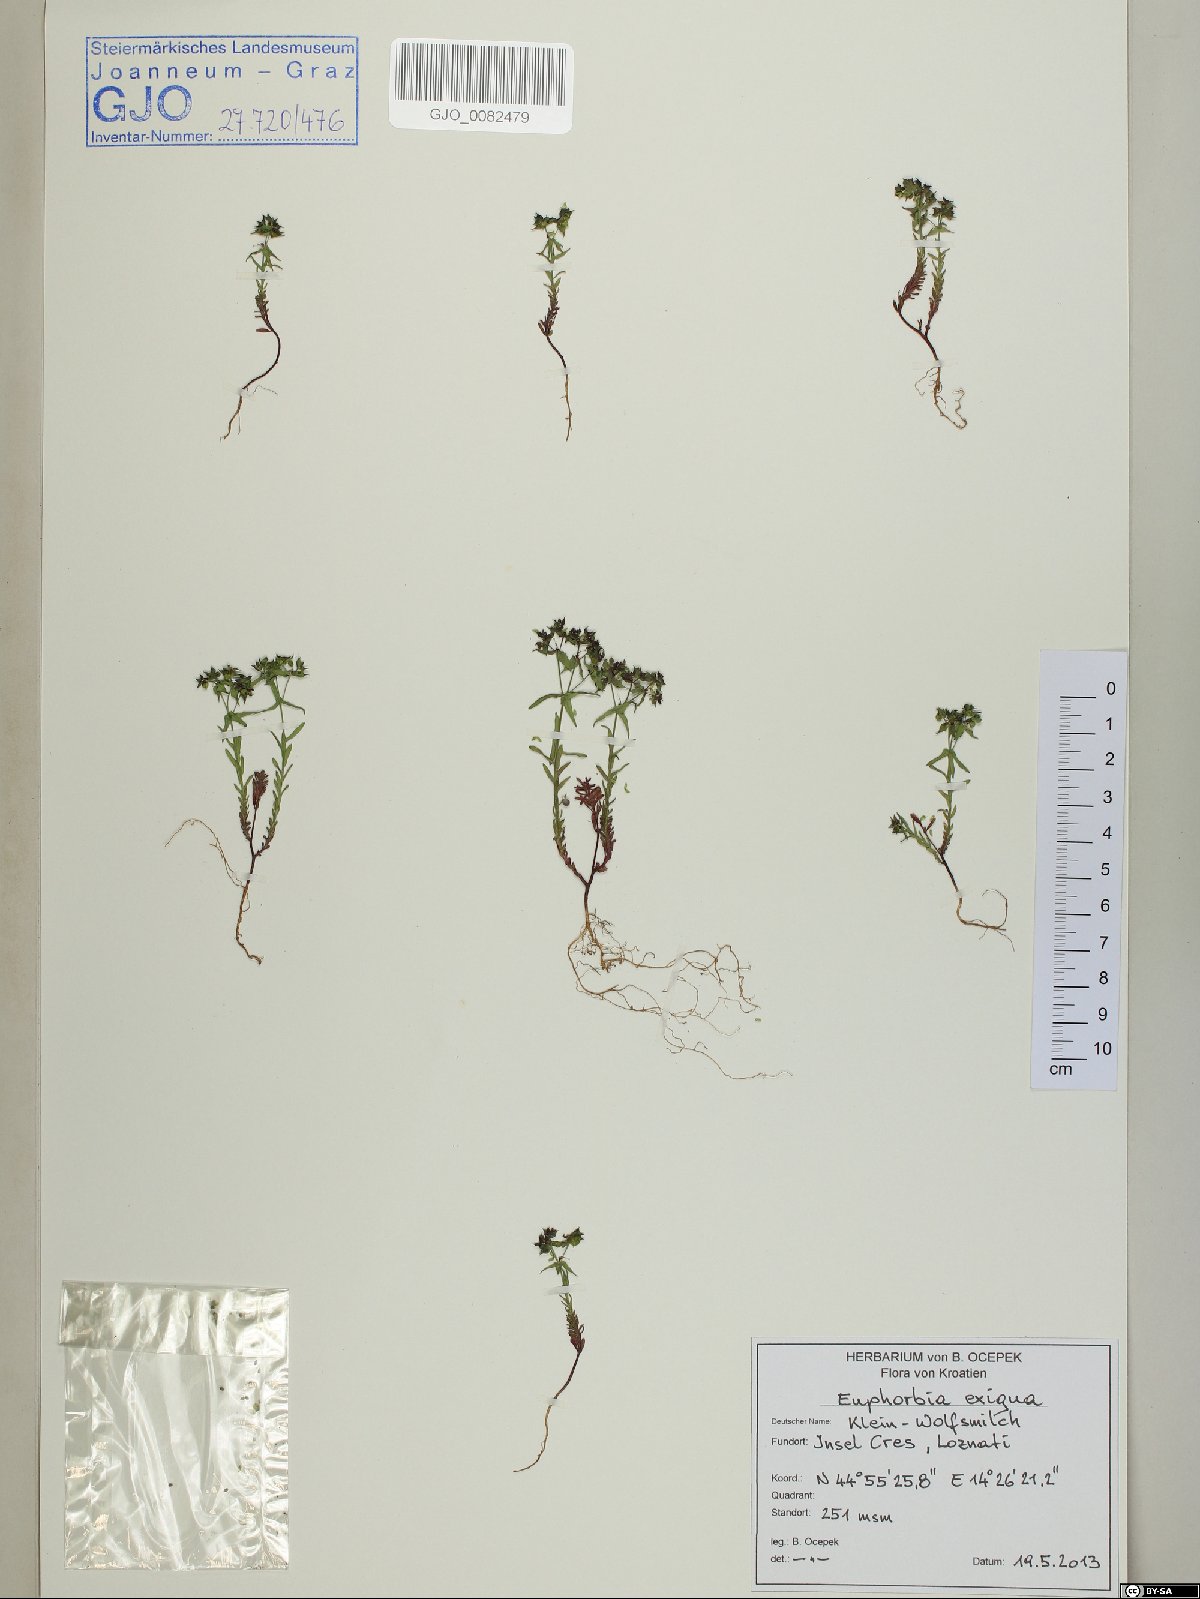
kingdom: Plantae
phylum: Tracheophyta
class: Magnoliopsida
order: Malpighiales
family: Euphorbiaceae
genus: Euphorbia
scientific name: Euphorbia exigua
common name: Dwarf spurge
